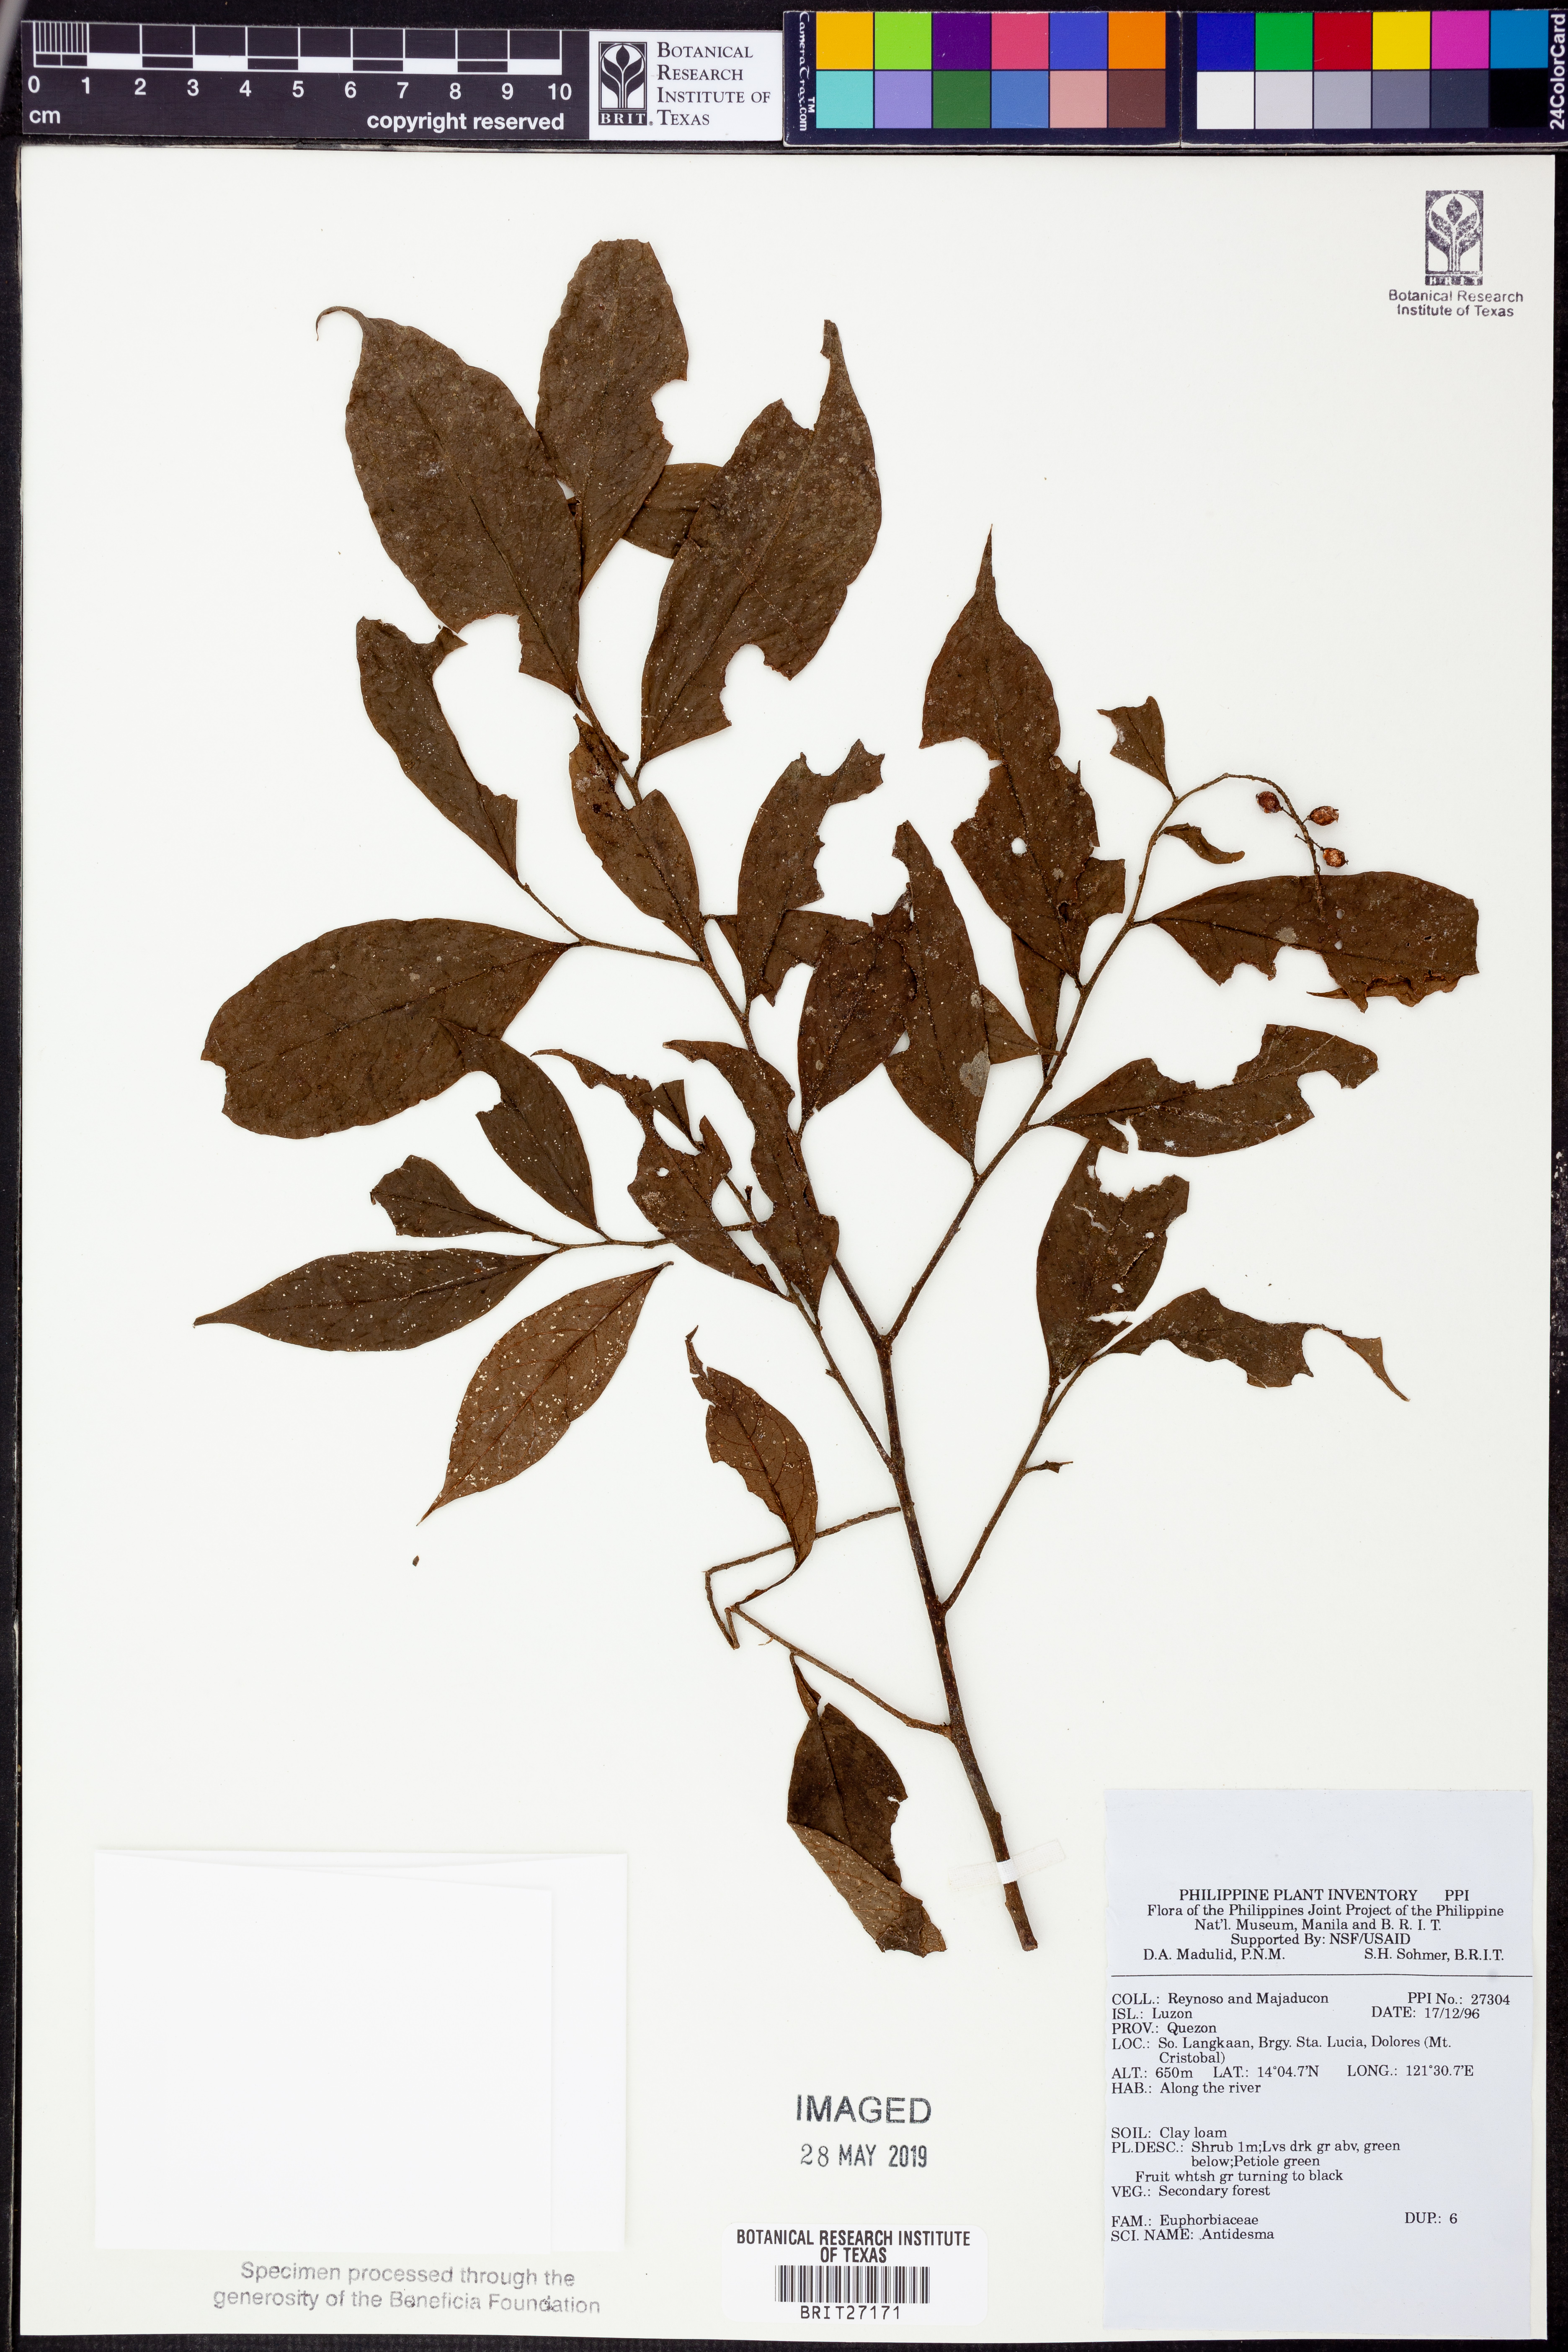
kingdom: Plantae
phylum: Tracheophyta
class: Magnoliopsida
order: Malpighiales
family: Phyllanthaceae
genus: Antidesma
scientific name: Antidesma
